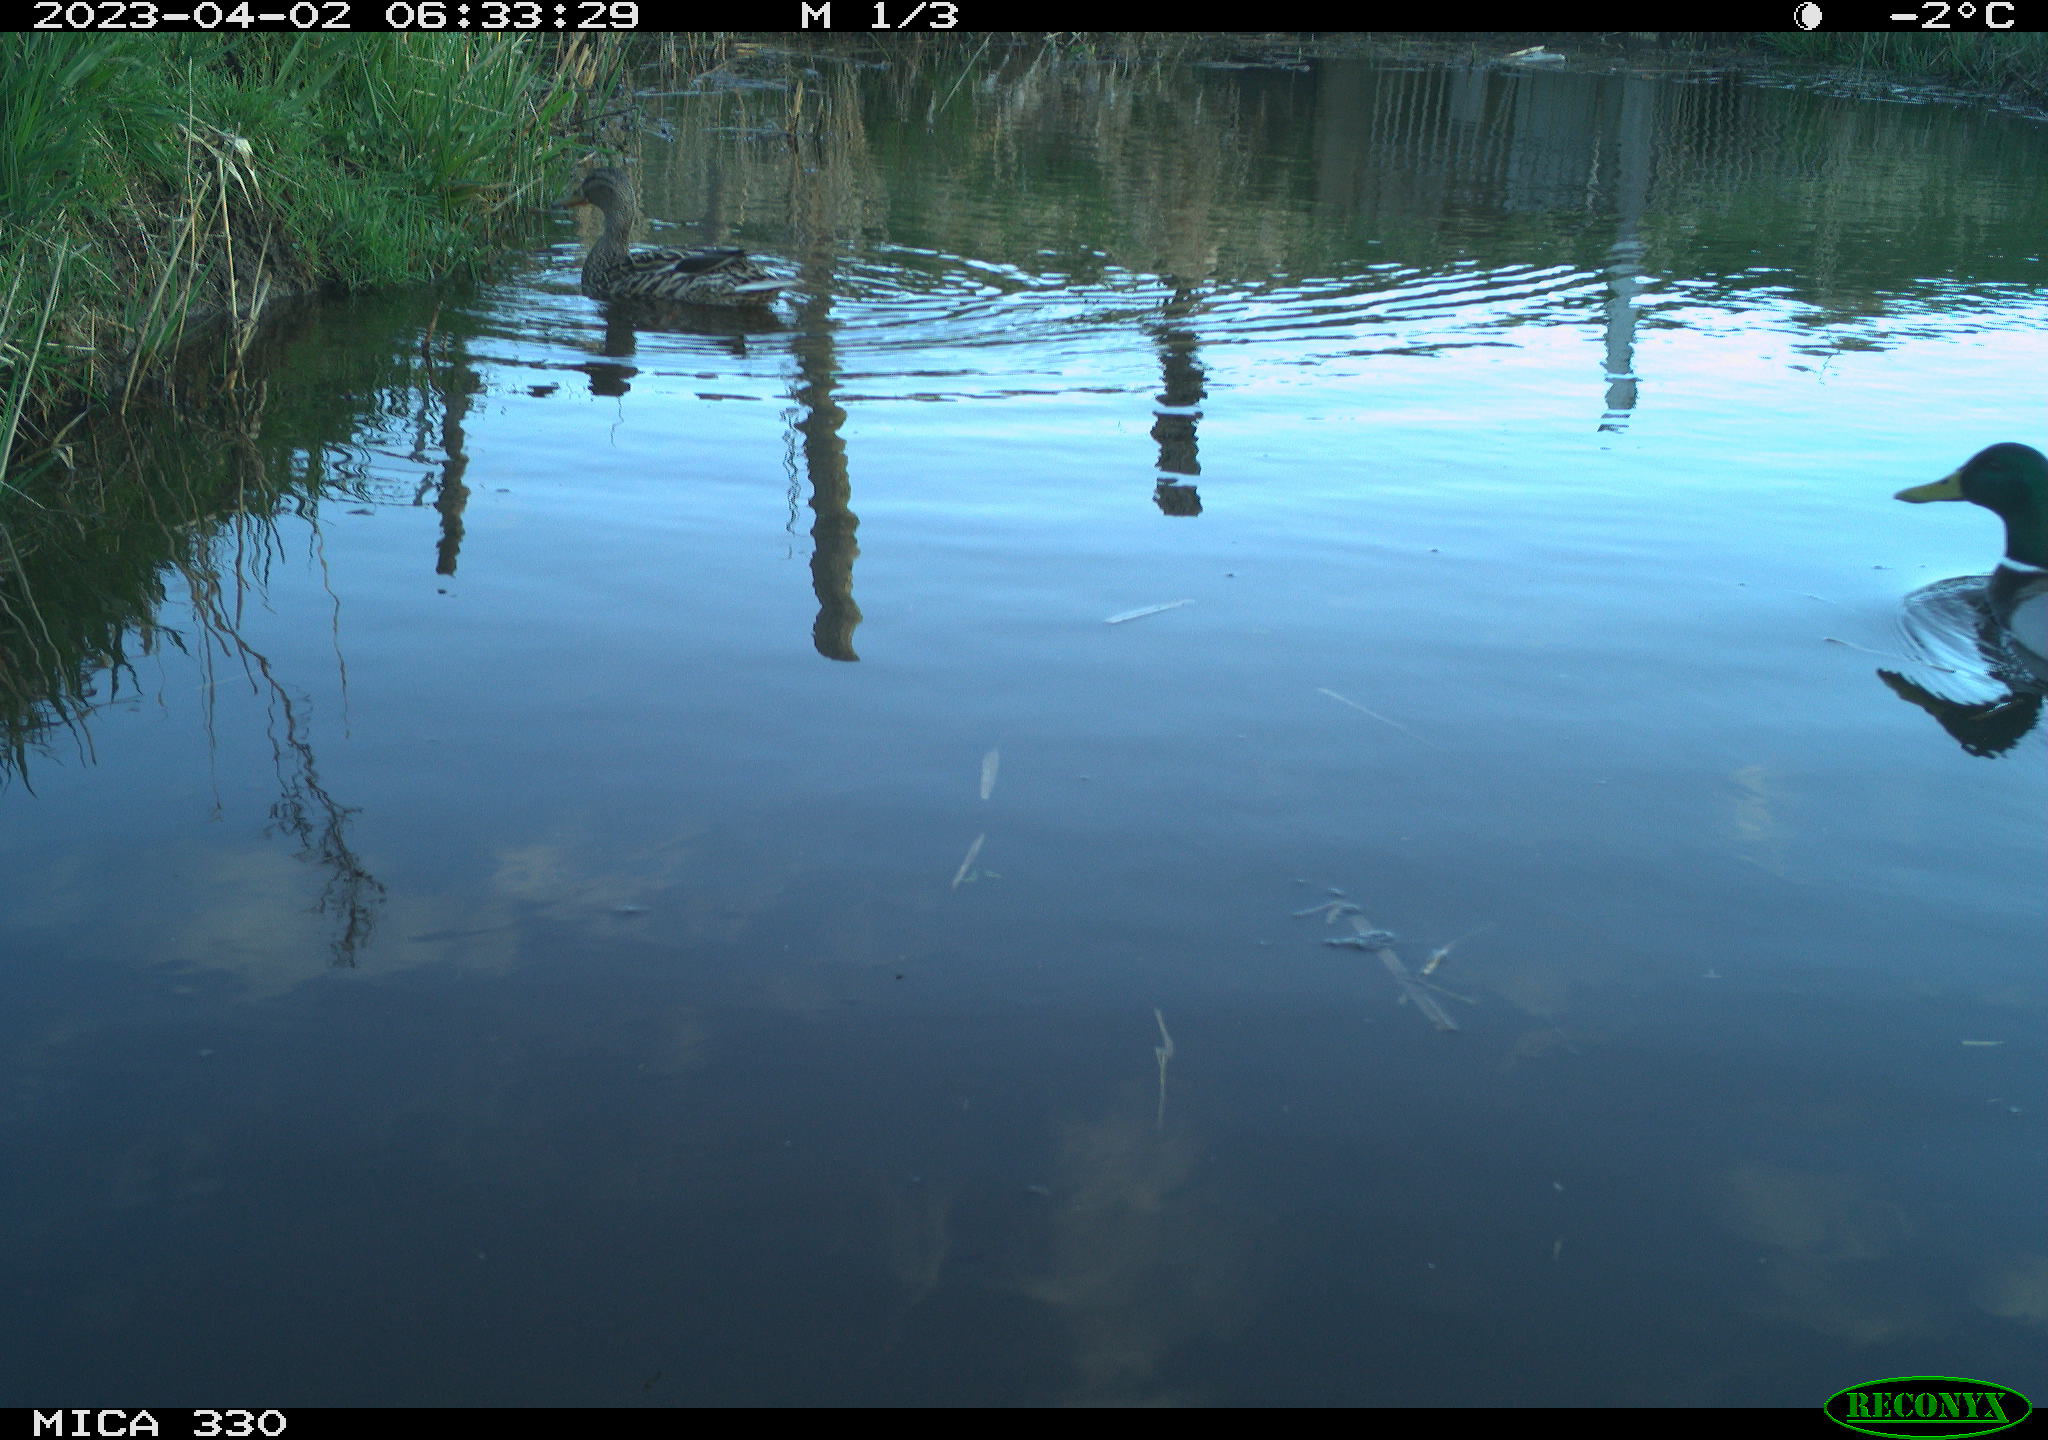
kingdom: Animalia
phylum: Chordata
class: Aves
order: Anseriformes
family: Anatidae
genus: Anas
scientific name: Anas
